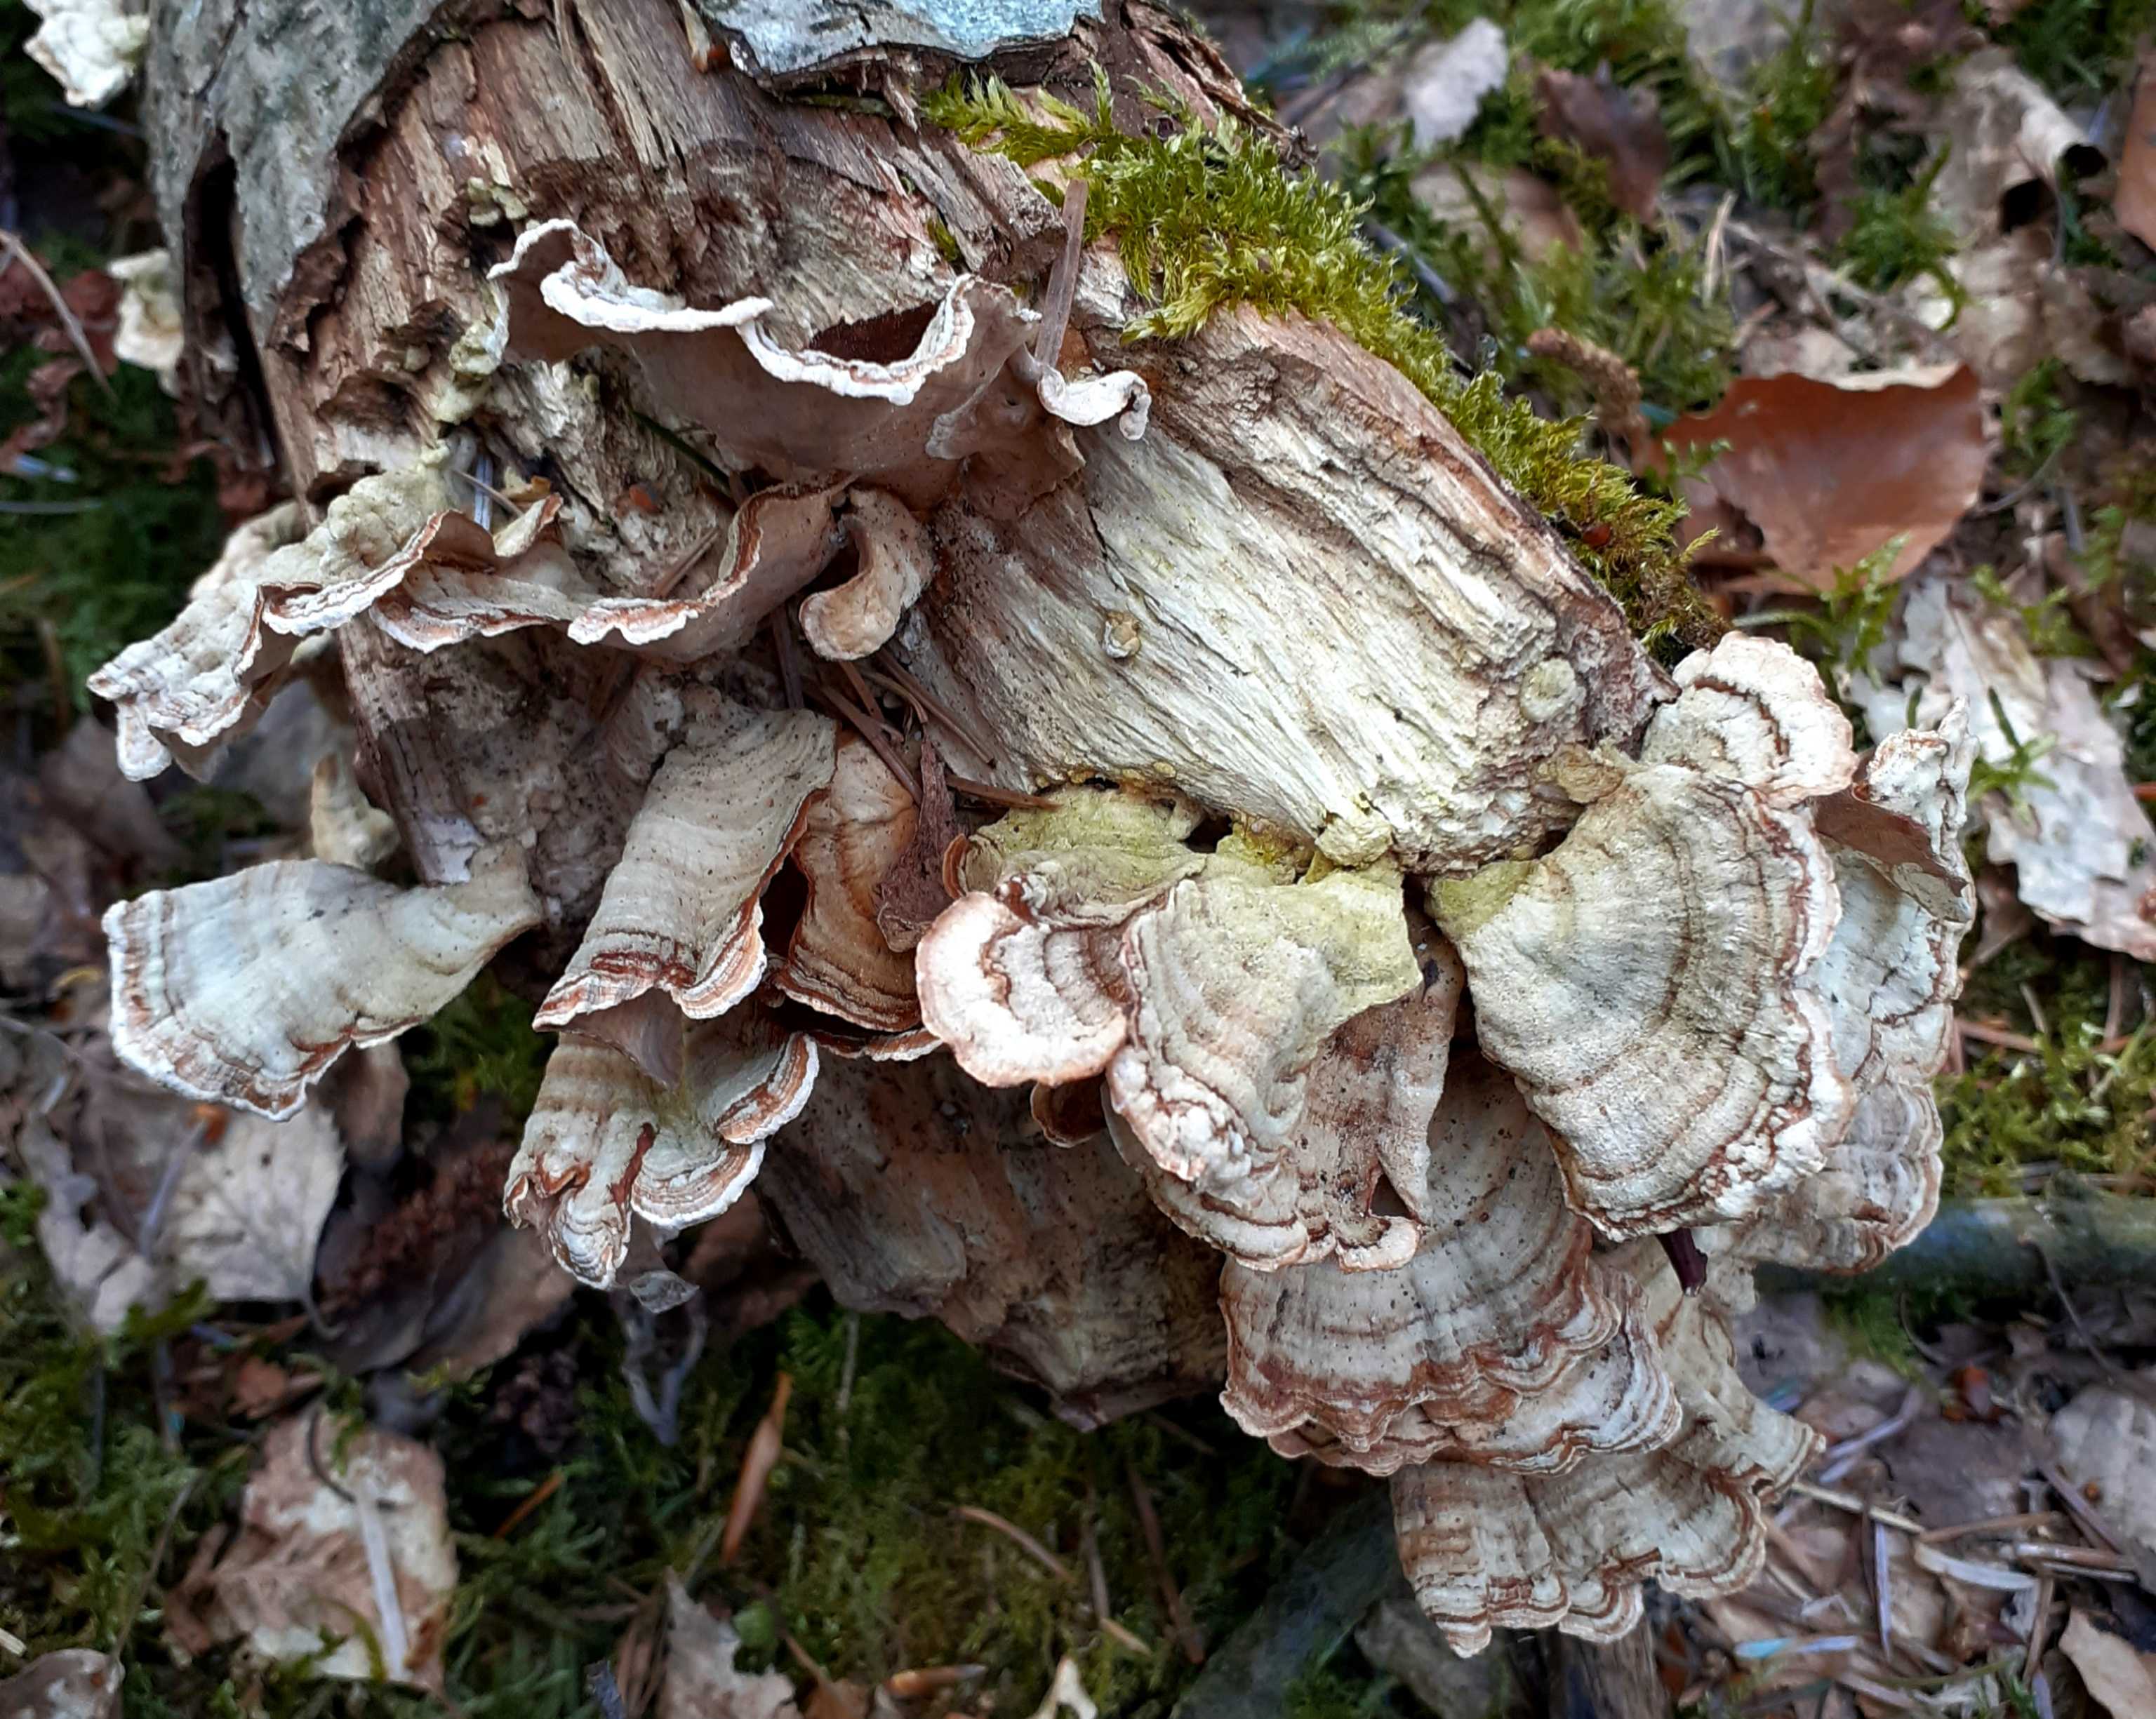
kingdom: Fungi
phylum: Basidiomycota
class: Agaricomycetes
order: Russulales
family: Stereaceae
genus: Stereum
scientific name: Stereum subtomentosum
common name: smuk lædersvamp
